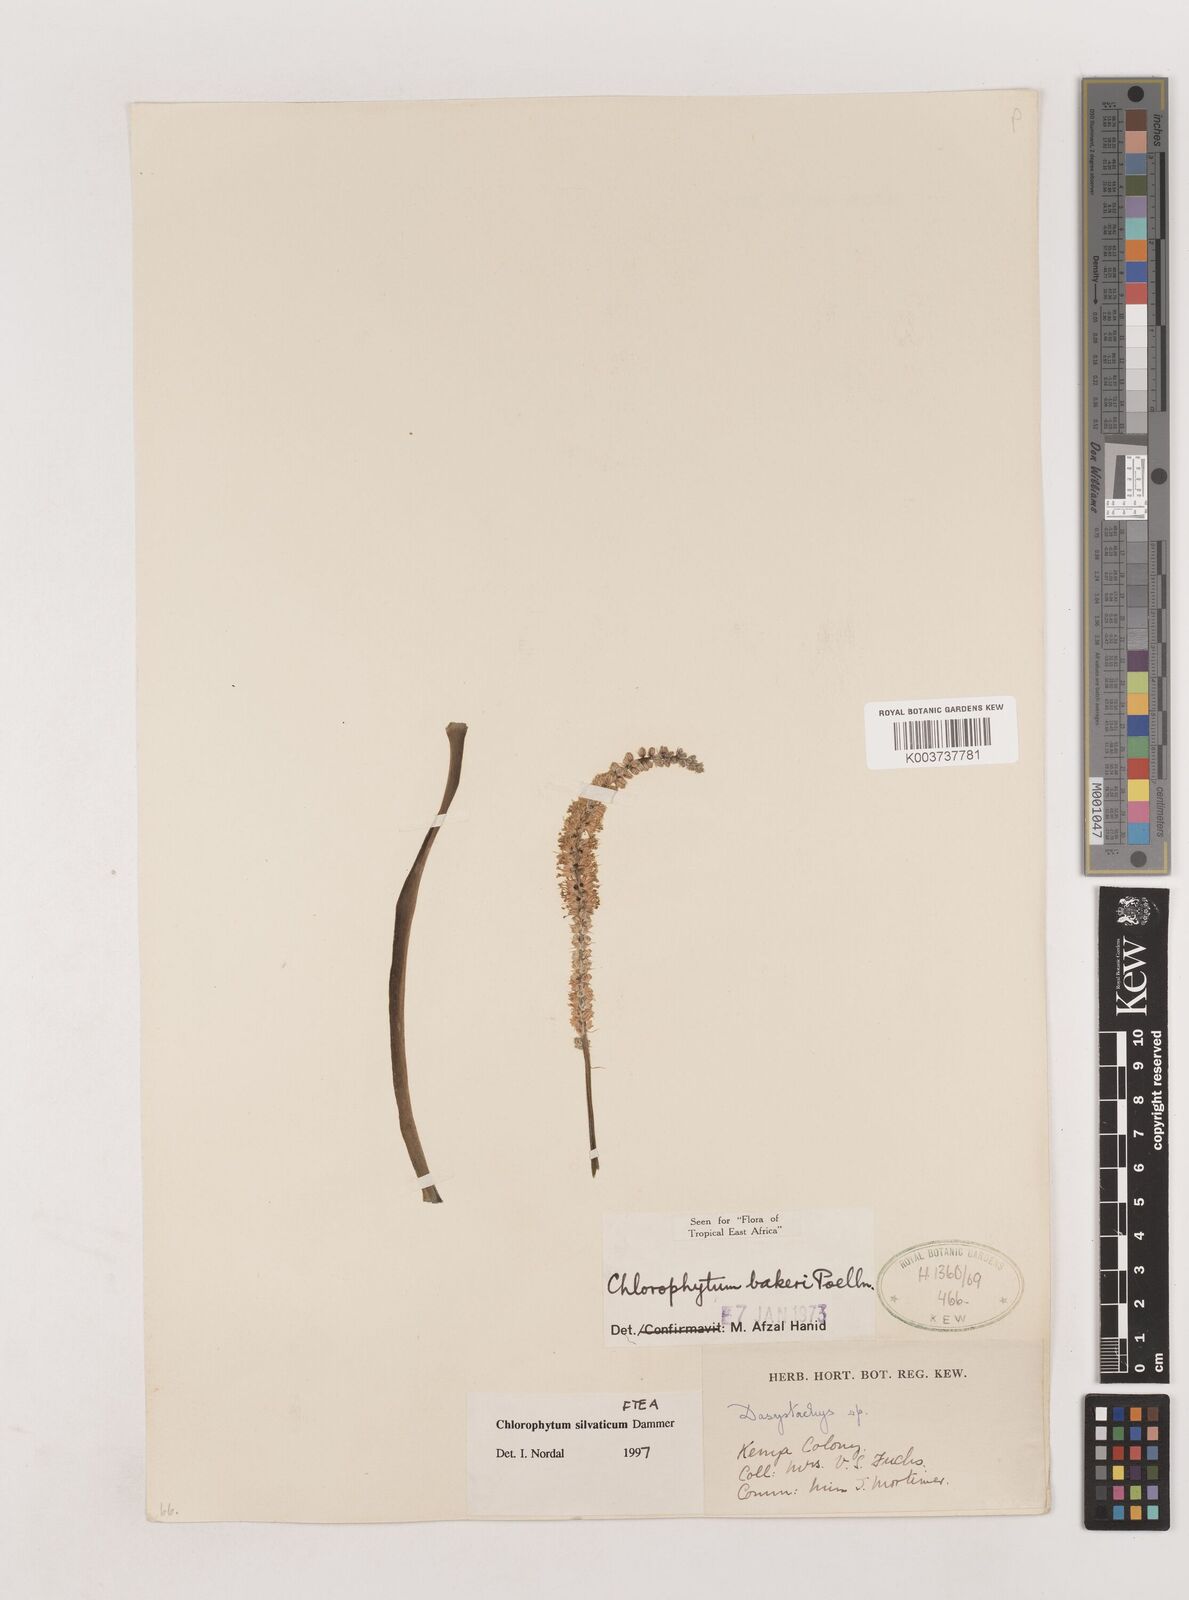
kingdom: Plantae
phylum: Tracheophyta
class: Liliopsida
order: Asparagales
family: Asparagaceae
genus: Chlorophytum
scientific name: Chlorophytum africanum
